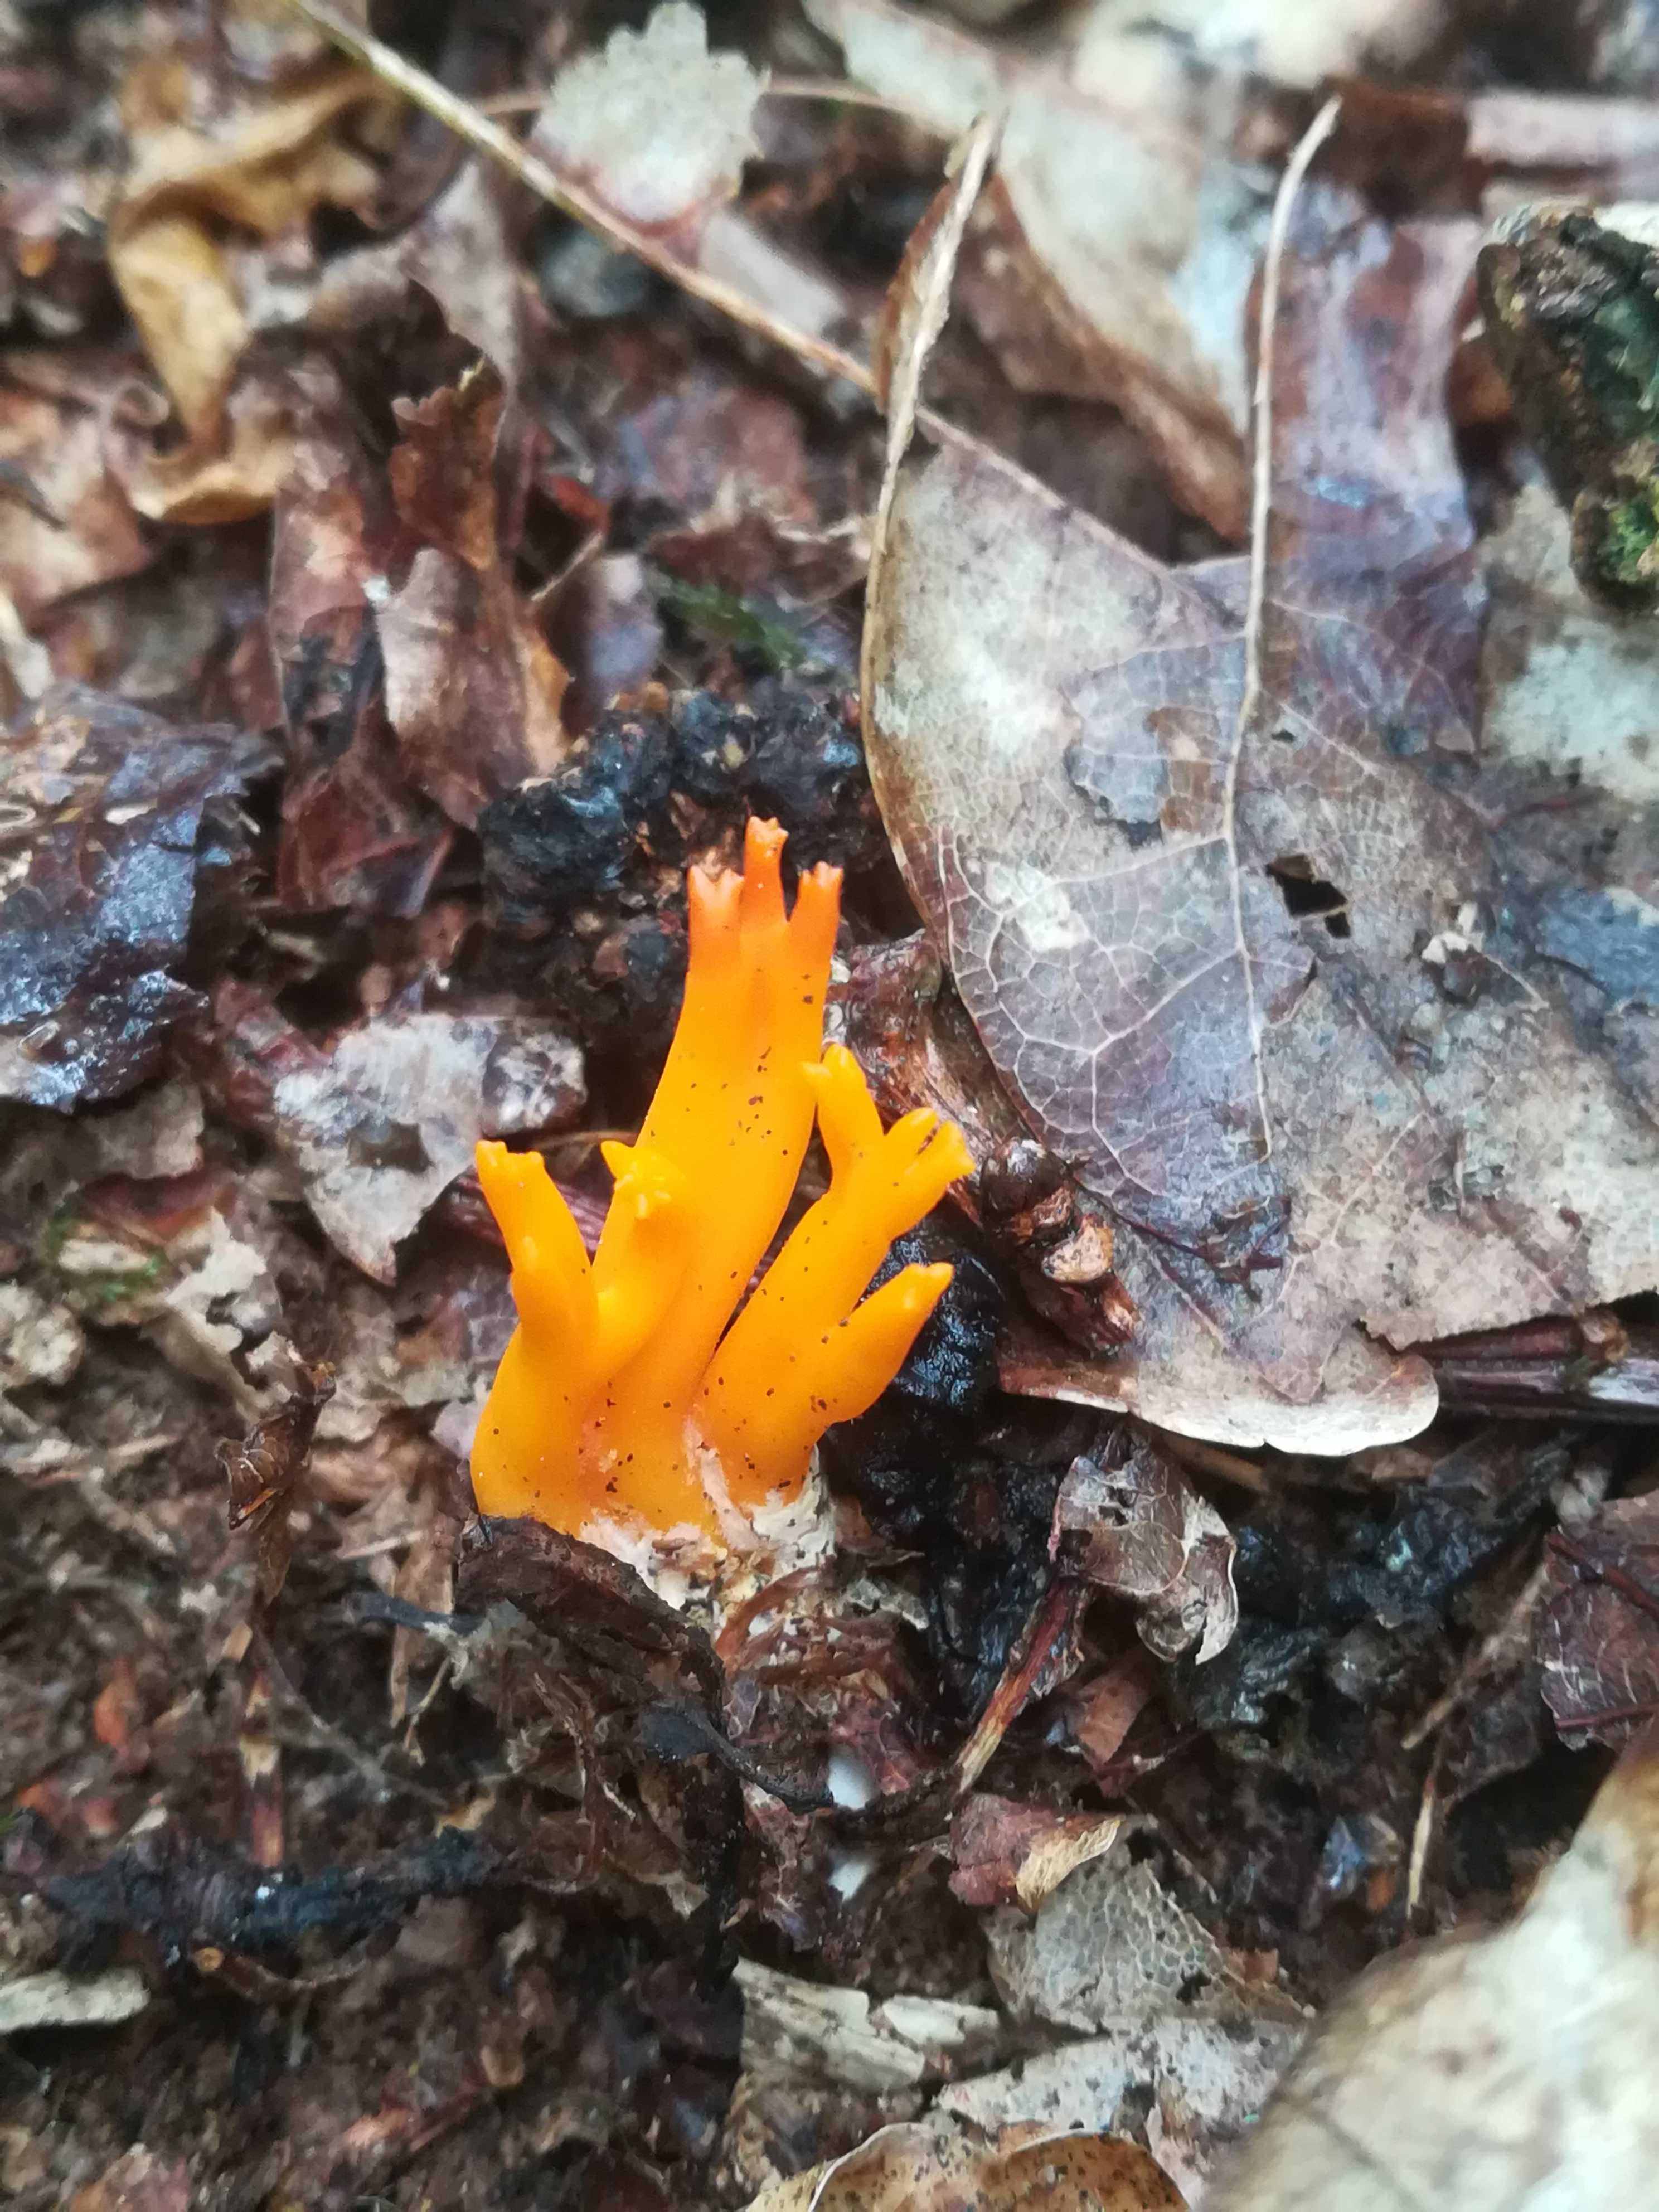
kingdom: Fungi
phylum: Basidiomycota
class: Dacrymycetes
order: Dacrymycetales
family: Dacrymycetaceae
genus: Calocera
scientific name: Calocera viscosa
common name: almindelig guldgaffel
